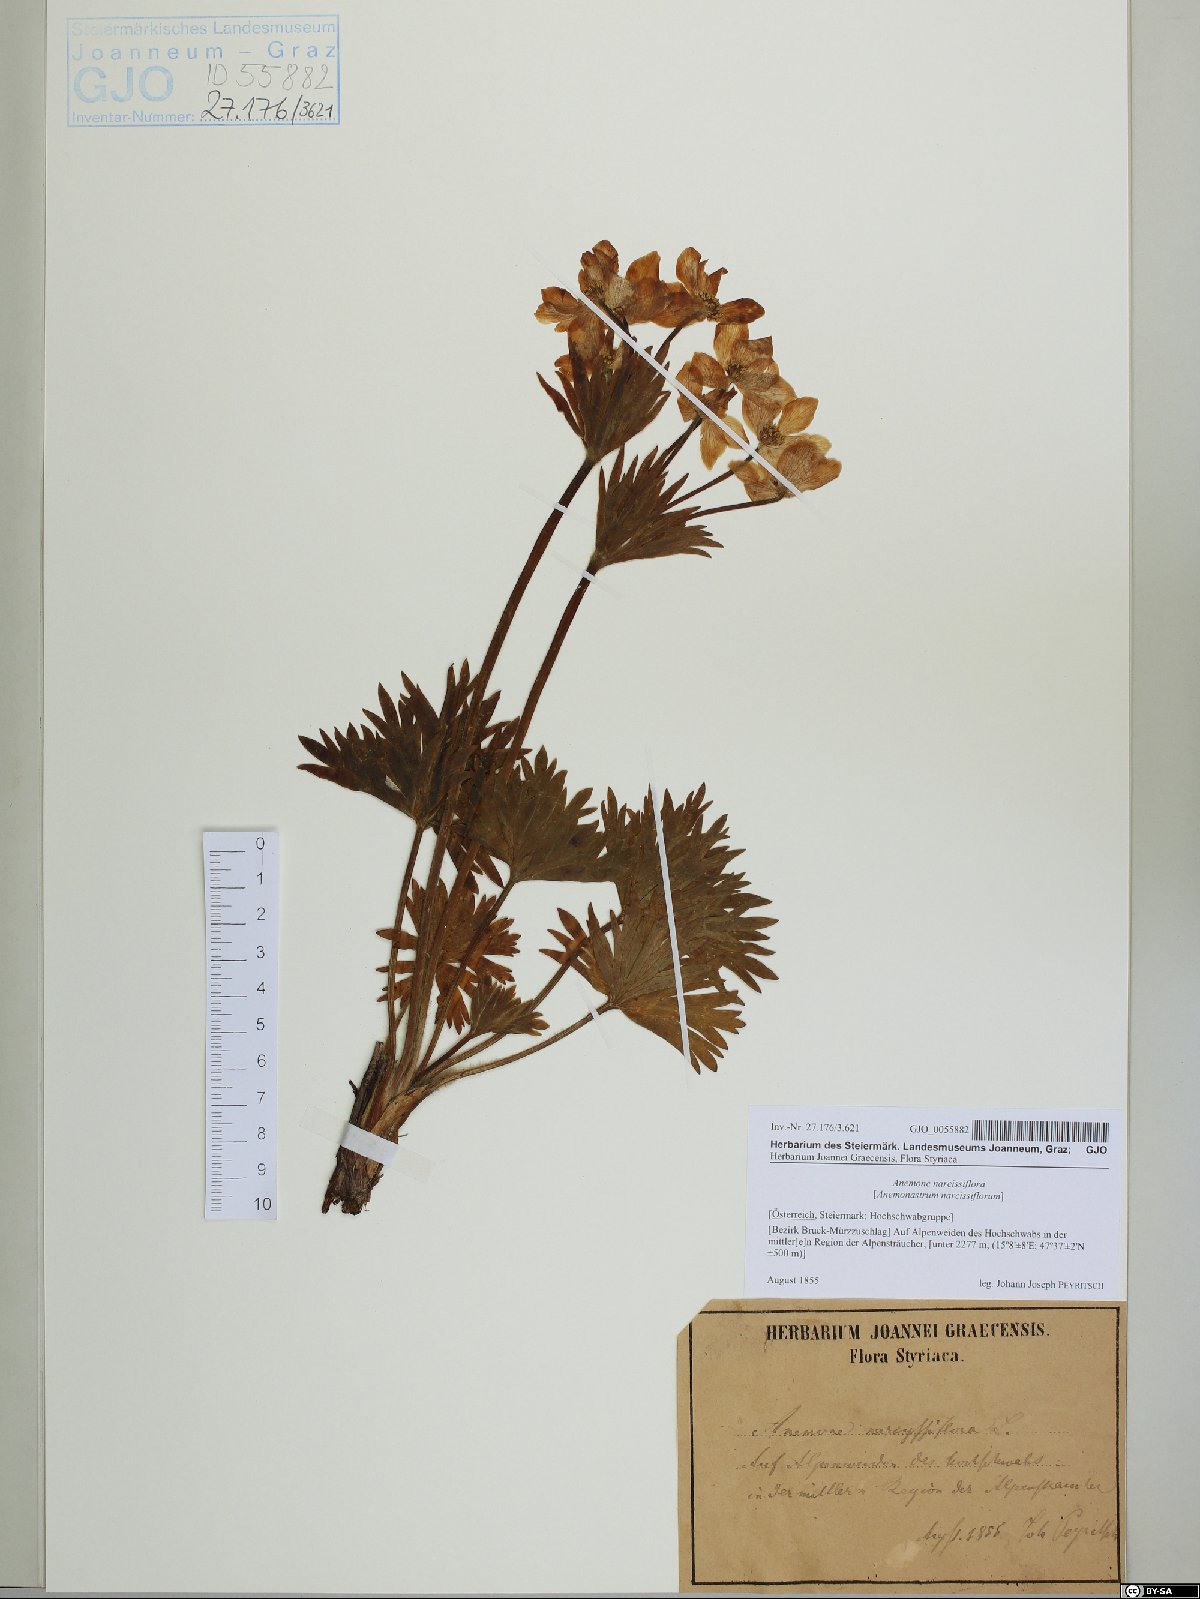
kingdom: Plantae
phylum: Tracheophyta
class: Magnoliopsida
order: Ranunculales
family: Ranunculaceae
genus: Anemonastrum
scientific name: Anemonastrum narcissiflorum
